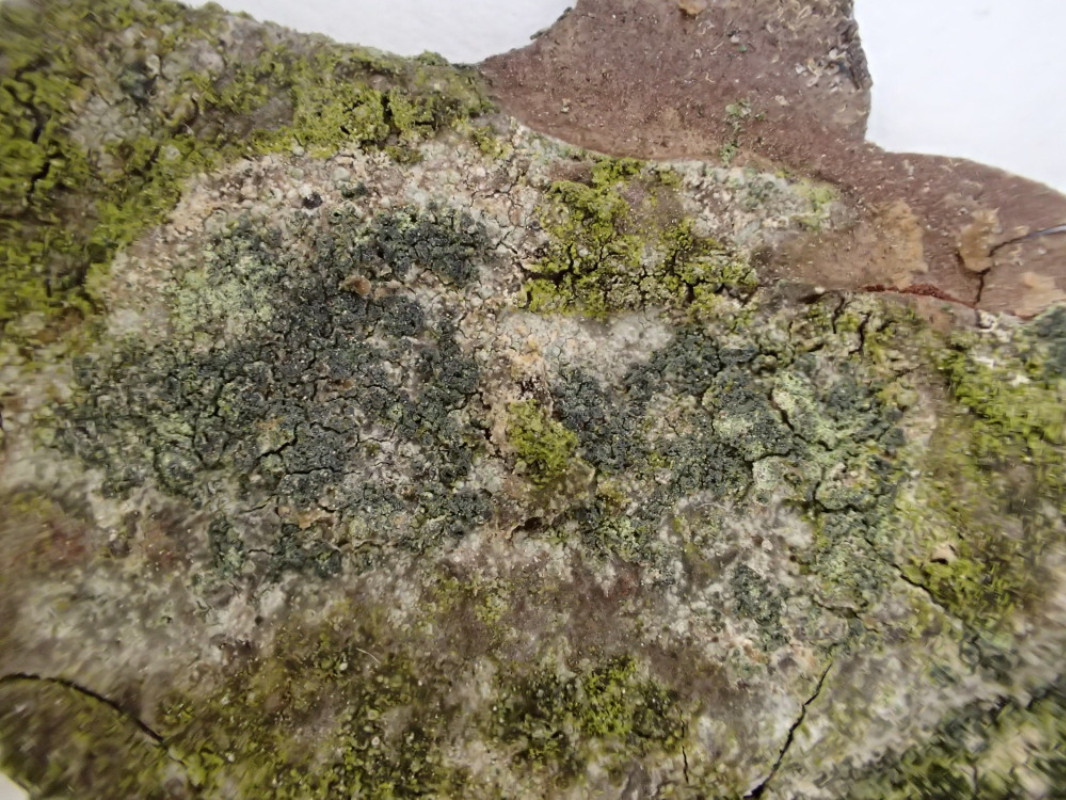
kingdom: Fungi
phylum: Ascomycota
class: Lecanoromycetes
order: Caliciales
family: Caliciaceae
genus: Buellia
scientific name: Buellia griseovirens
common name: grågrøn sortskivelav
